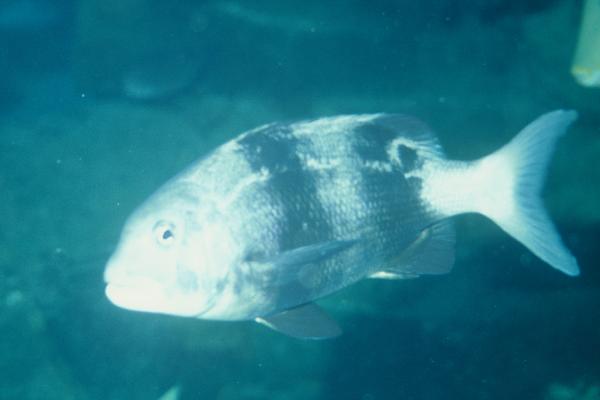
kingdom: Animalia
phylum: Chordata
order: Perciformes
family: Sparidae
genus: Cymatoceps
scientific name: Cymatoceps nasutus
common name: Black musselcracker
